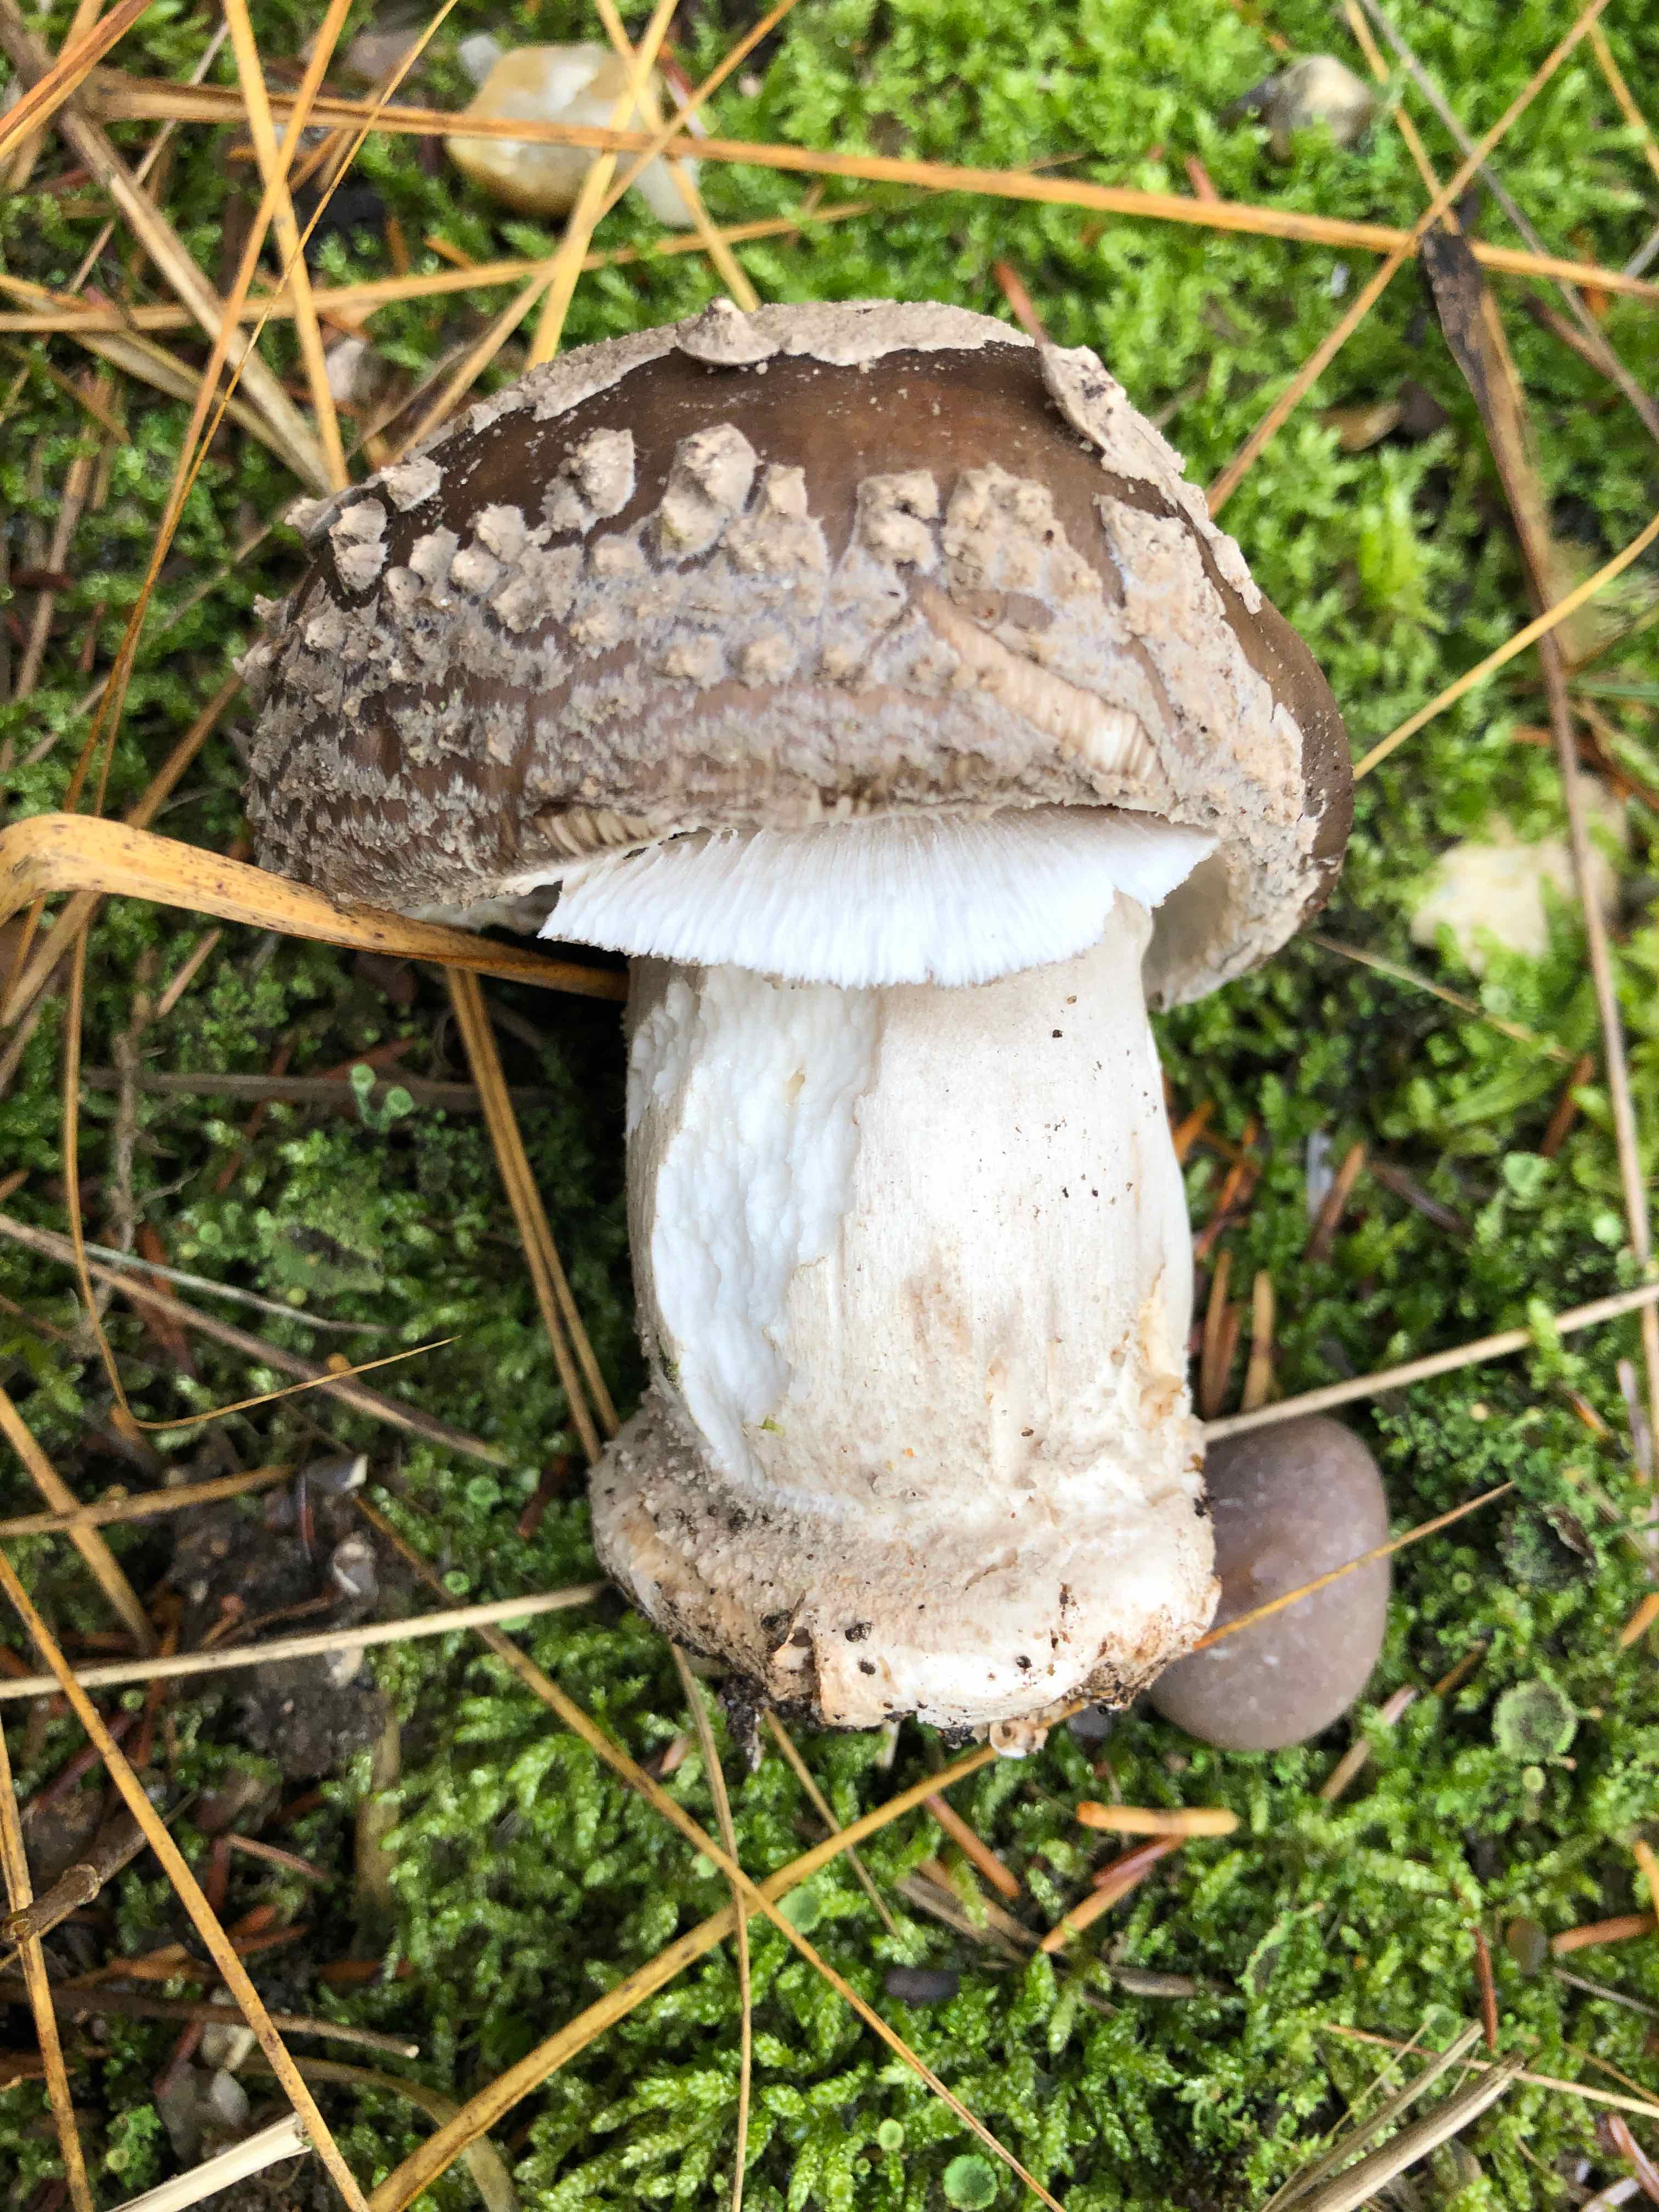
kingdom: Fungi
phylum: Basidiomycota
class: Agaricomycetes
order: Agaricales
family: Amanitaceae
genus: Amanita
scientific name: Amanita porphyria
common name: porfyr-fluesvamp
